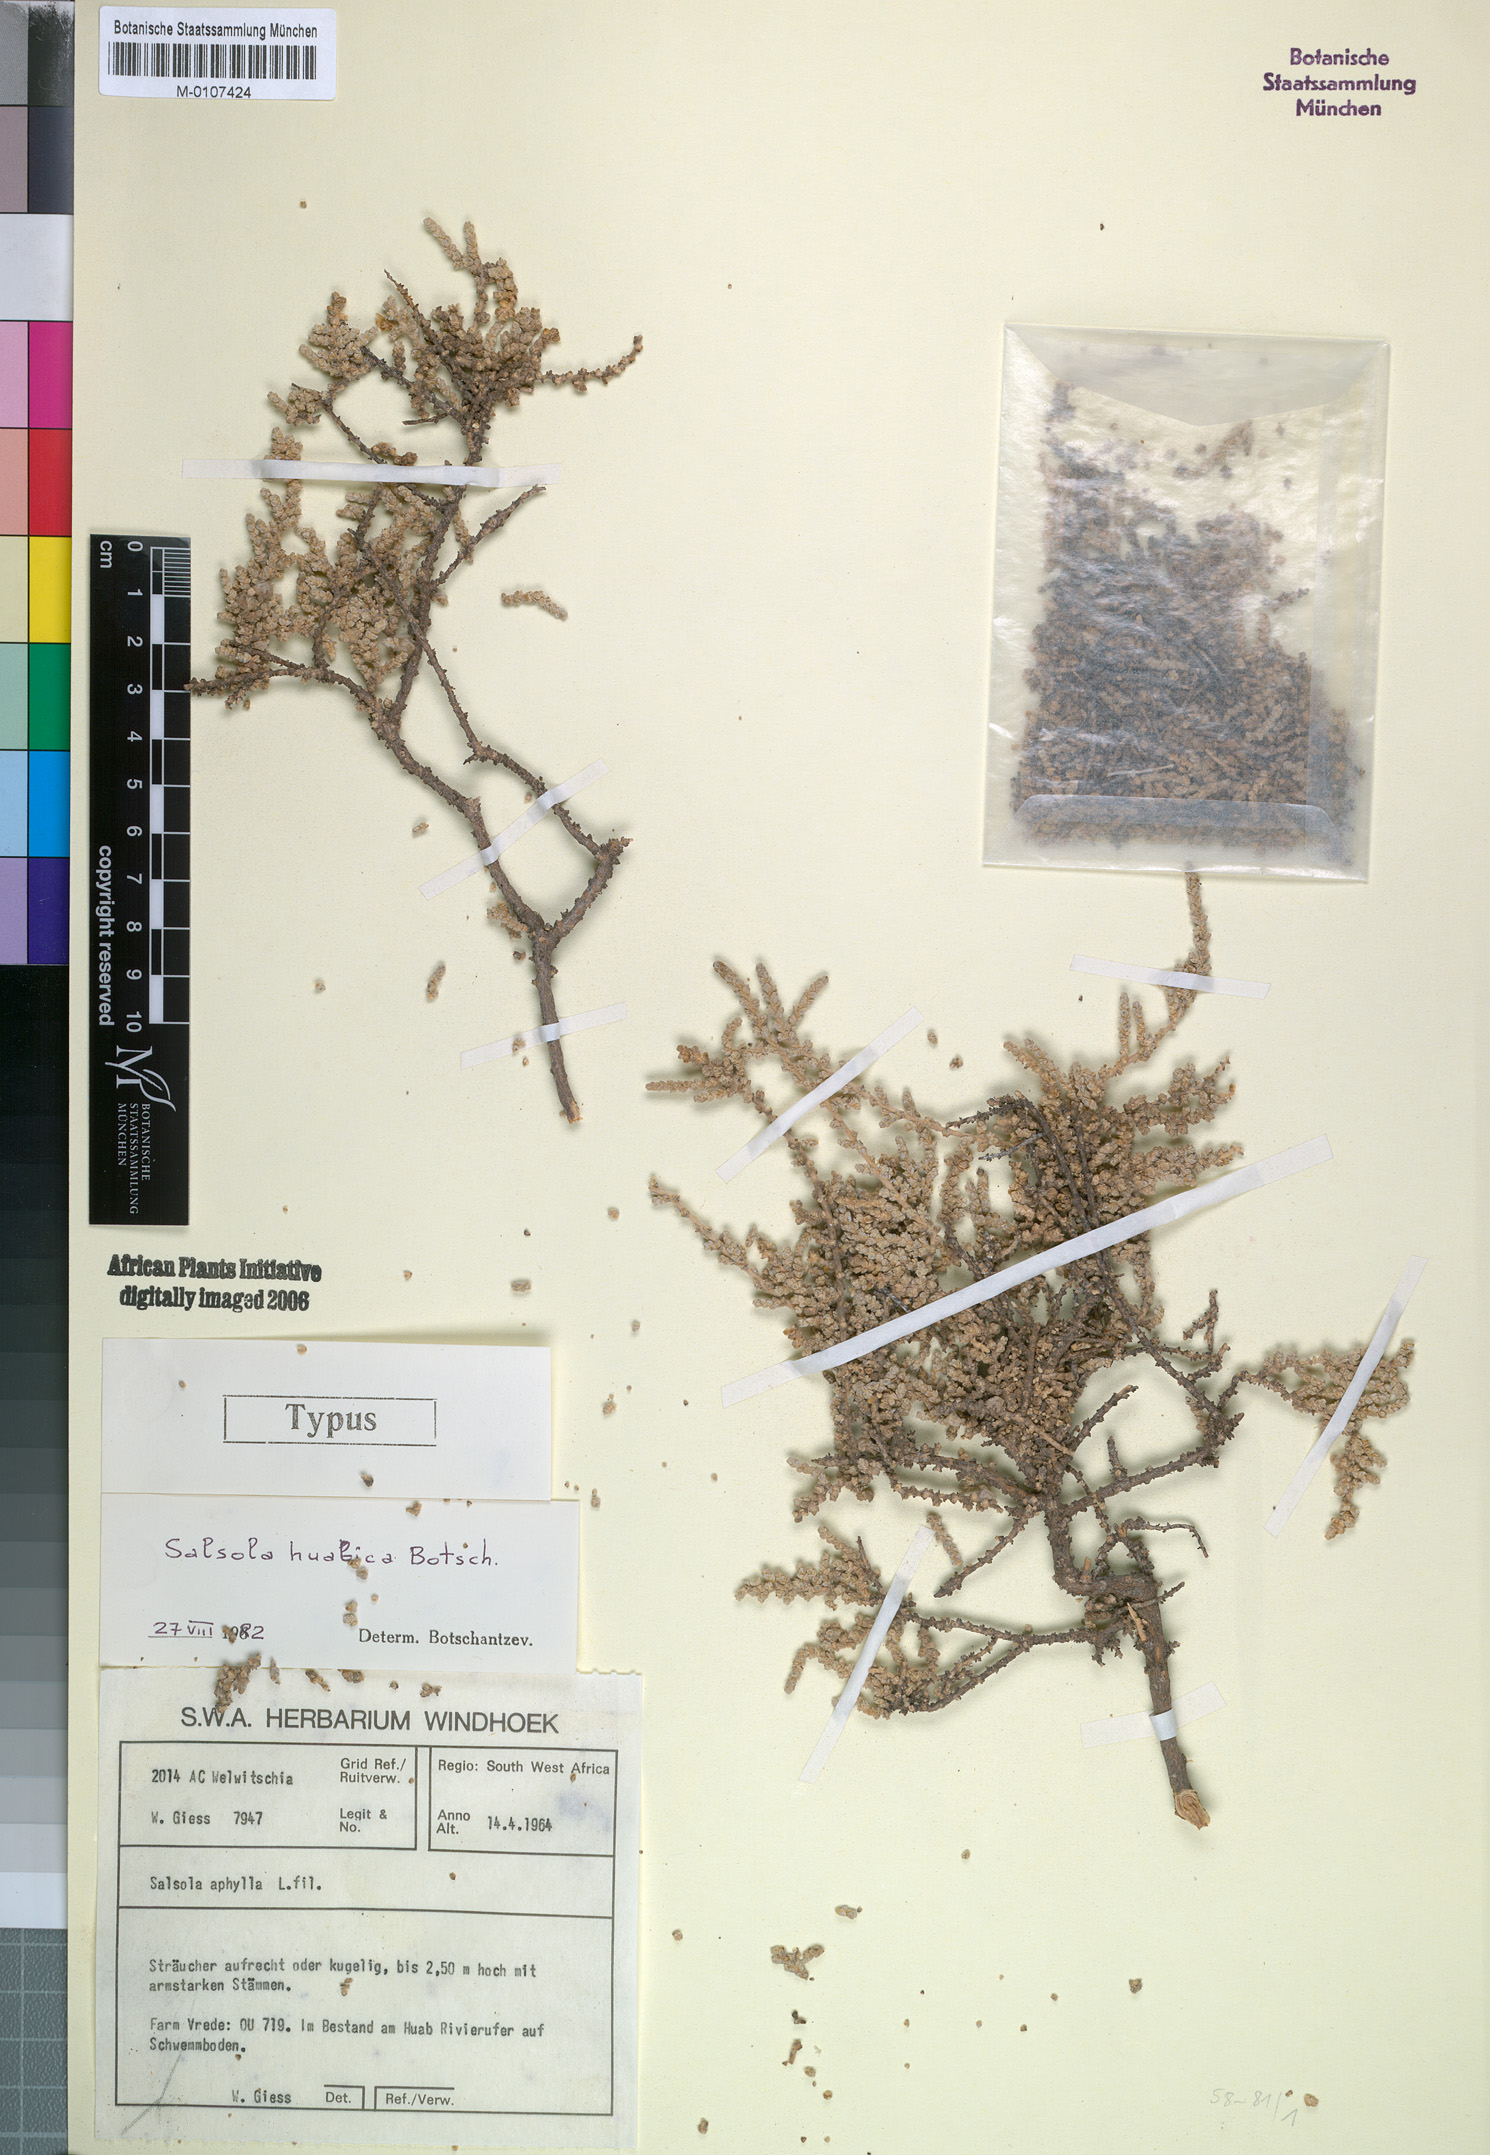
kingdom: Plantae
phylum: Tracheophyta
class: Magnoliopsida
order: Caryophyllales
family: Amaranthaceae
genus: Caroxylon
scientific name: Caroxylon huabicum
